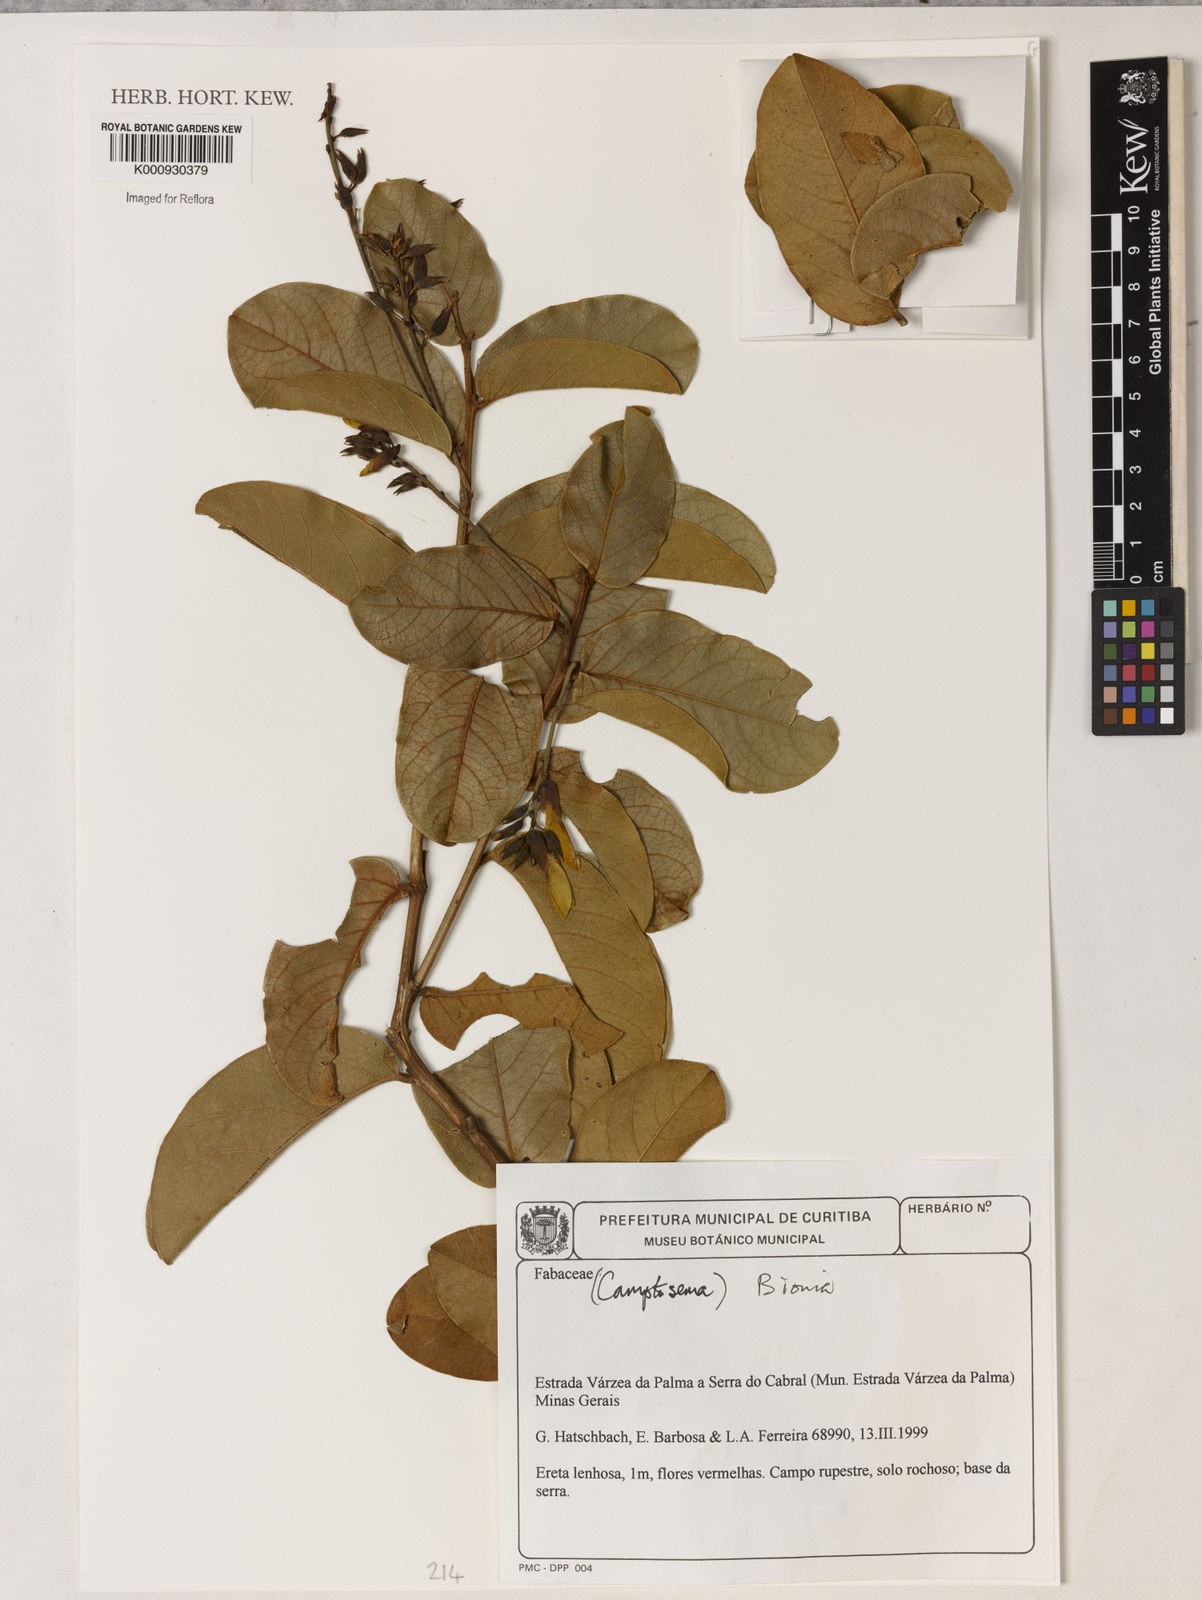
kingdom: Plantae
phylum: Tracheophyta
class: Magnoliopsida
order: Fabales
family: Fabaceae
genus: Camptosema
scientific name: Camptosema
